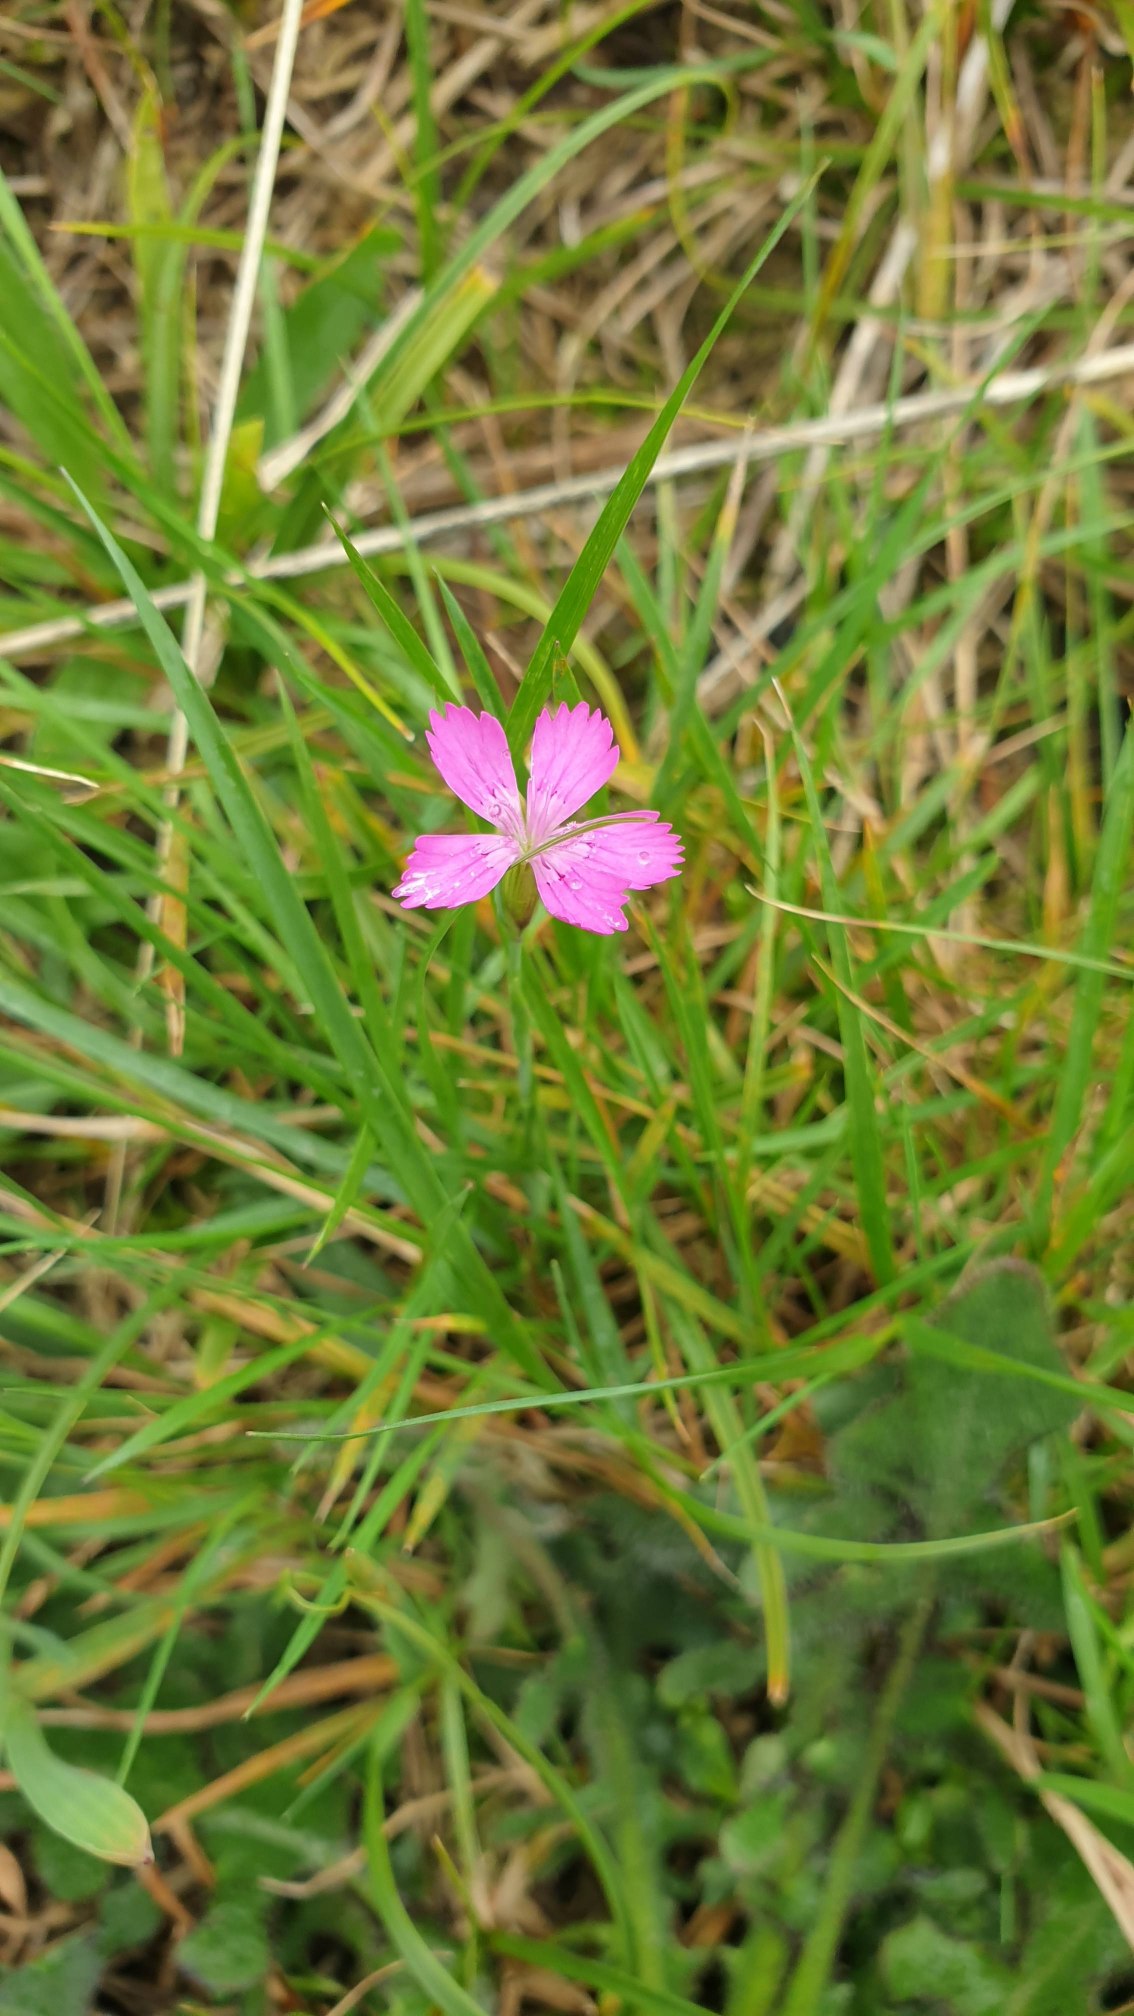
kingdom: Plantae
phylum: Tracheophyta
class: Magnoliopsida
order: Caryophyllales
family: Caryophyllaceae
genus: Dianthus
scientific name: Dianthus deltoides
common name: Bakke-nellike
